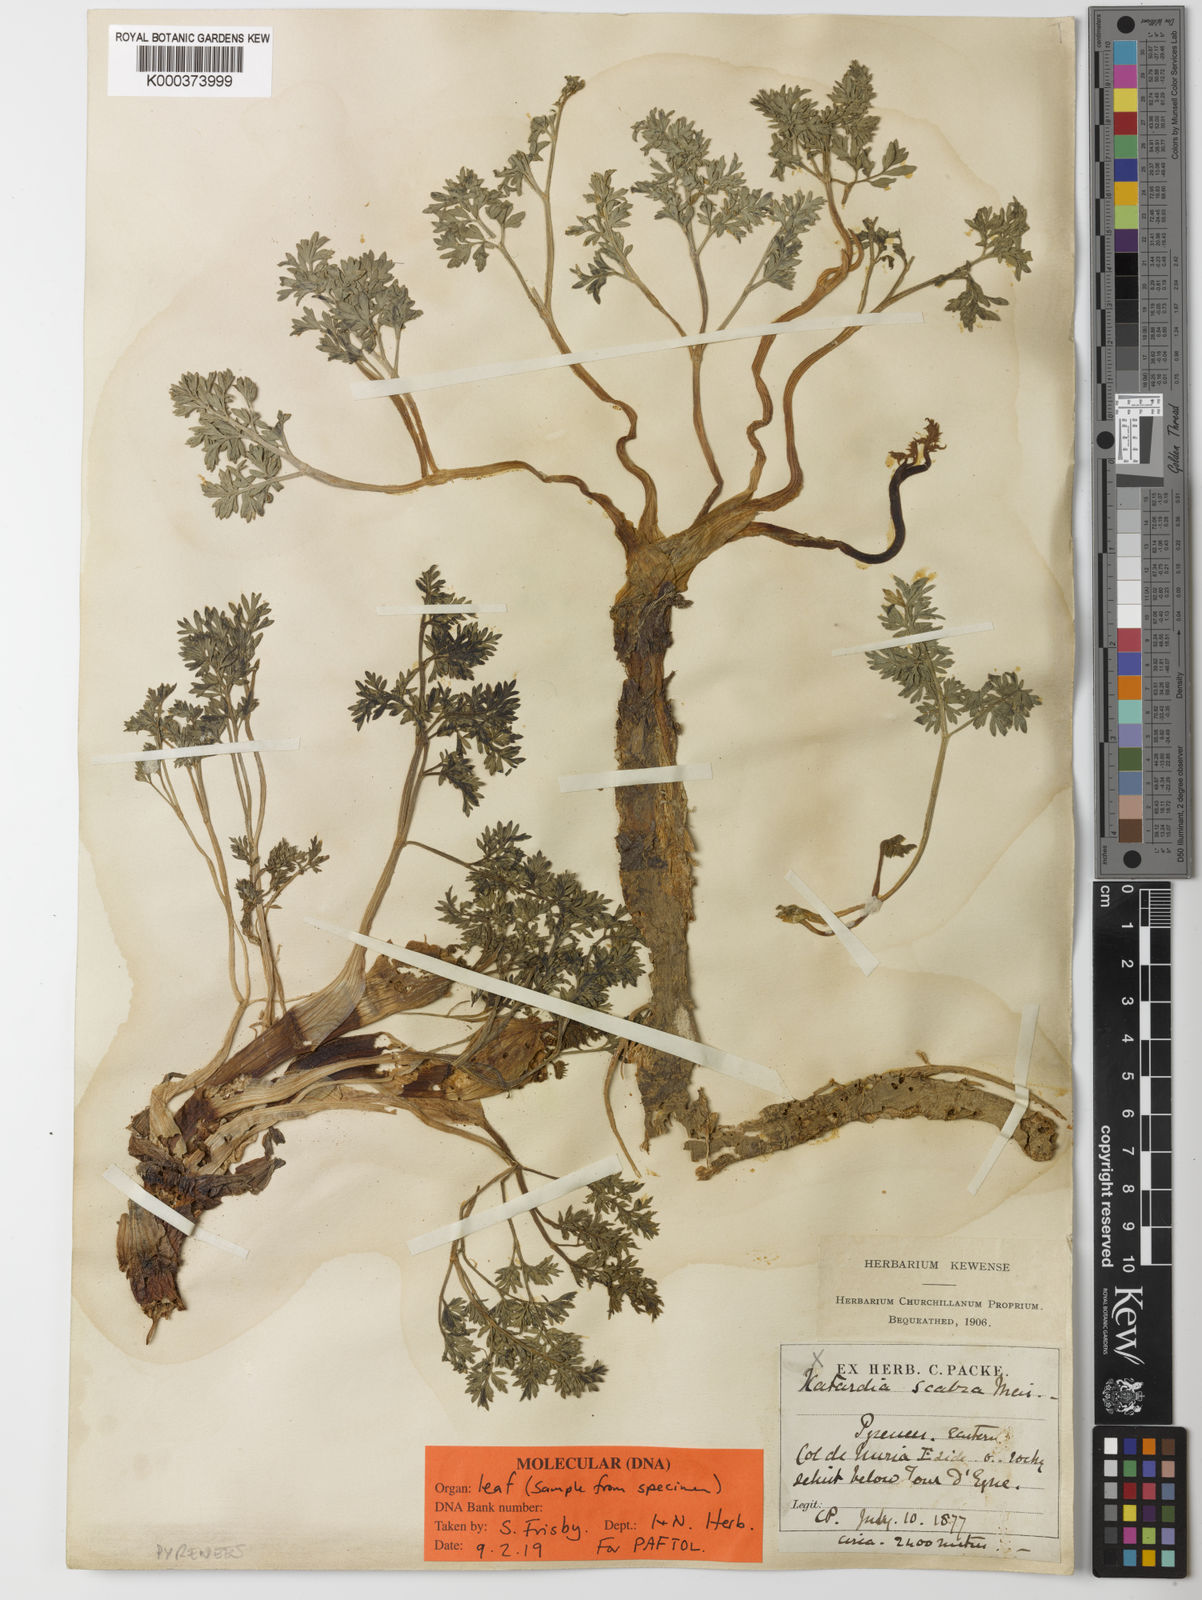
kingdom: Plantae
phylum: Tracheophyta
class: Magnoliopsida
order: Apiales
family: Apiaceae
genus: Xatardia
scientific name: Xatardia scabra
